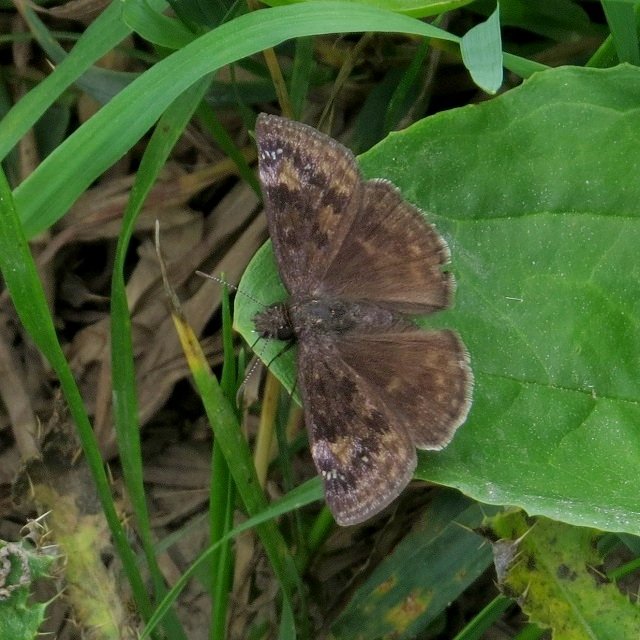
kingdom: Animalia
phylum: Arthropoda
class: Insecta
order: Lepidoptera
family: Hesperiidae
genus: Gesta
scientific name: Gesta
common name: Wild Indigo Duskywing
